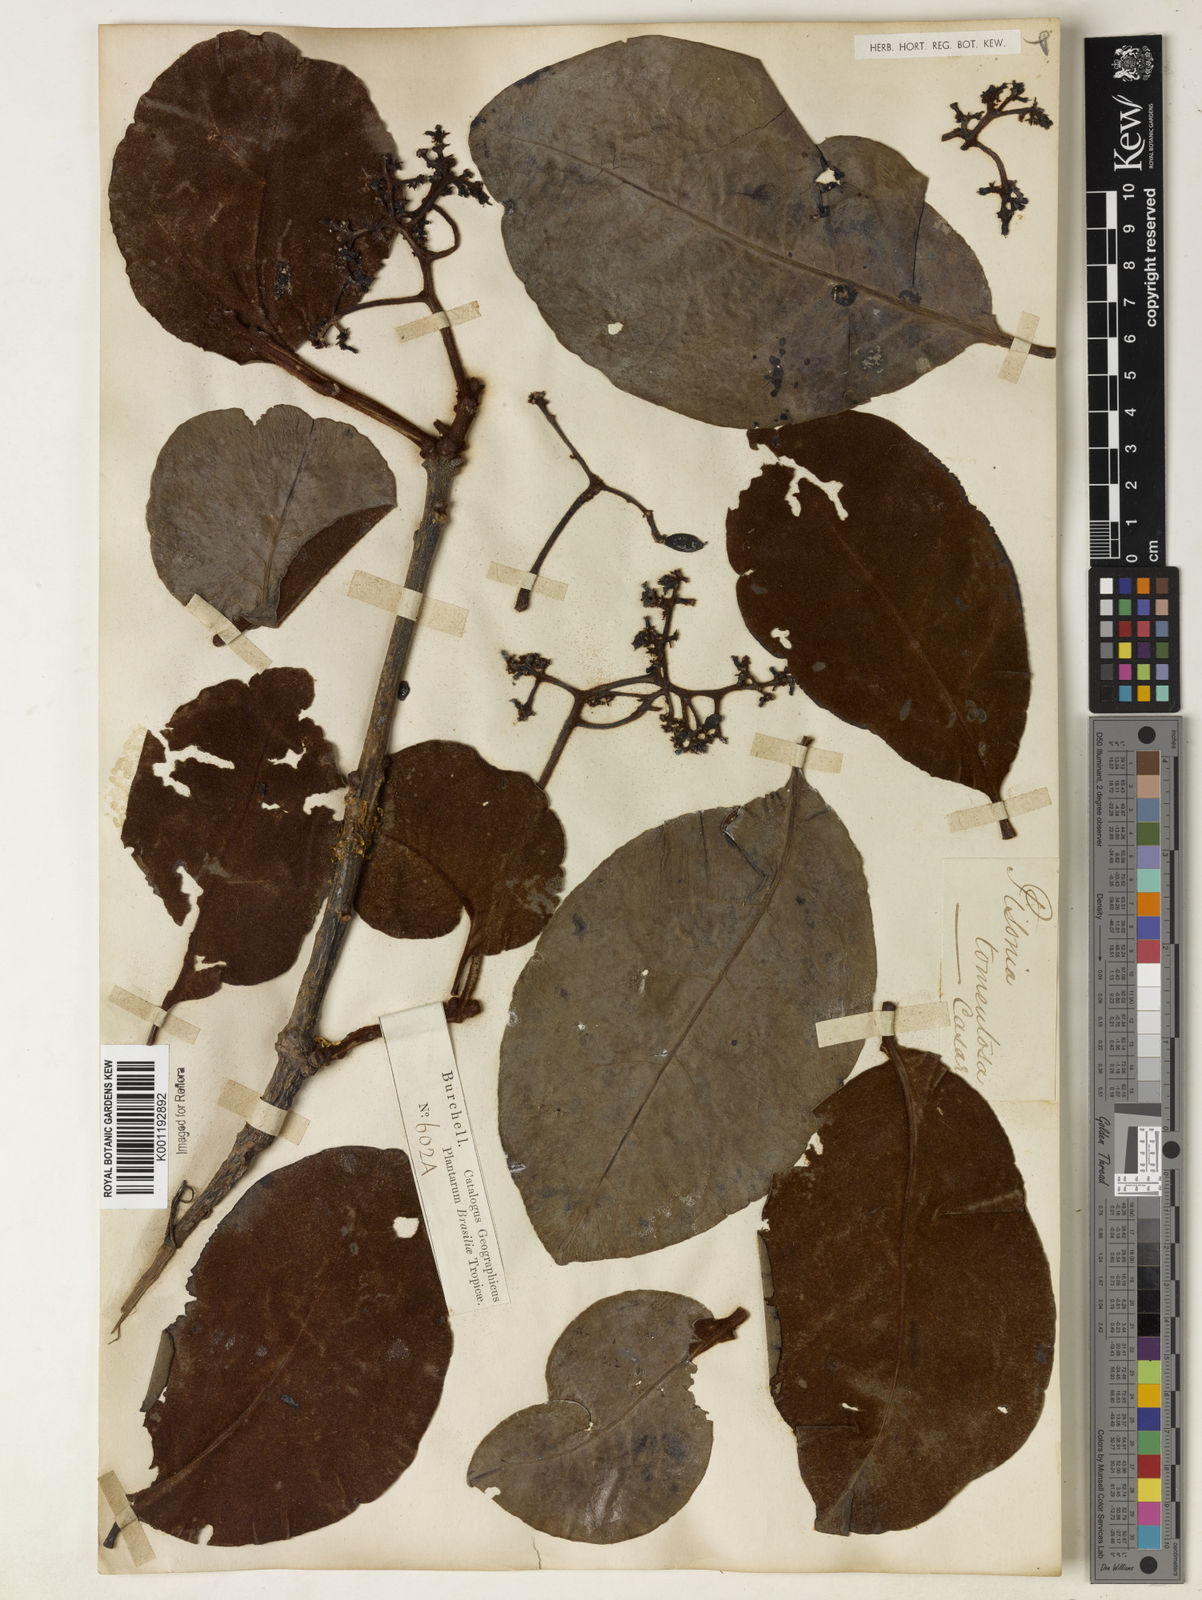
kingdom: Plantae
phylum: Tracheophyta
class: Magnoliopsida
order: Caryophyllales
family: Nyctaginaceae
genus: Guapira
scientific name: Guapira noxia
